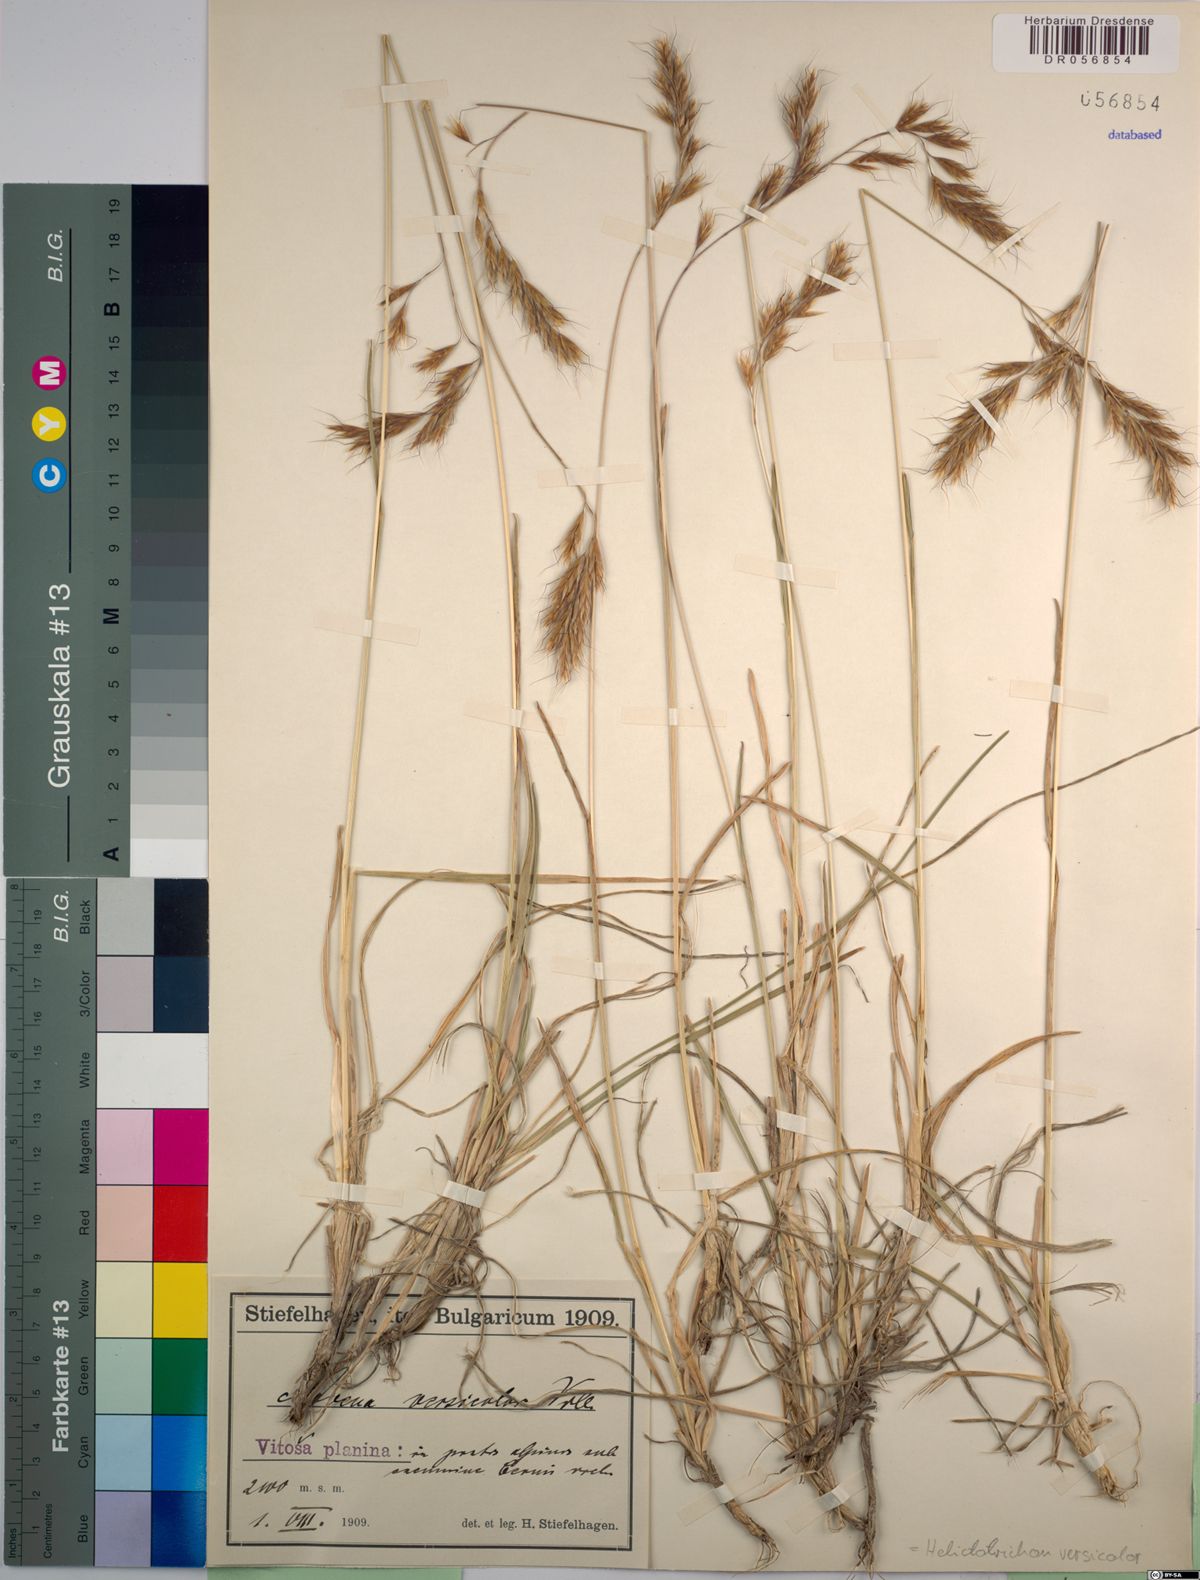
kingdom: Plantae
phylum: Tracheophyta
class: Liliopsida
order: Poales
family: Poaceae
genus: Helictochloa
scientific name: Helictochloa versicolor
